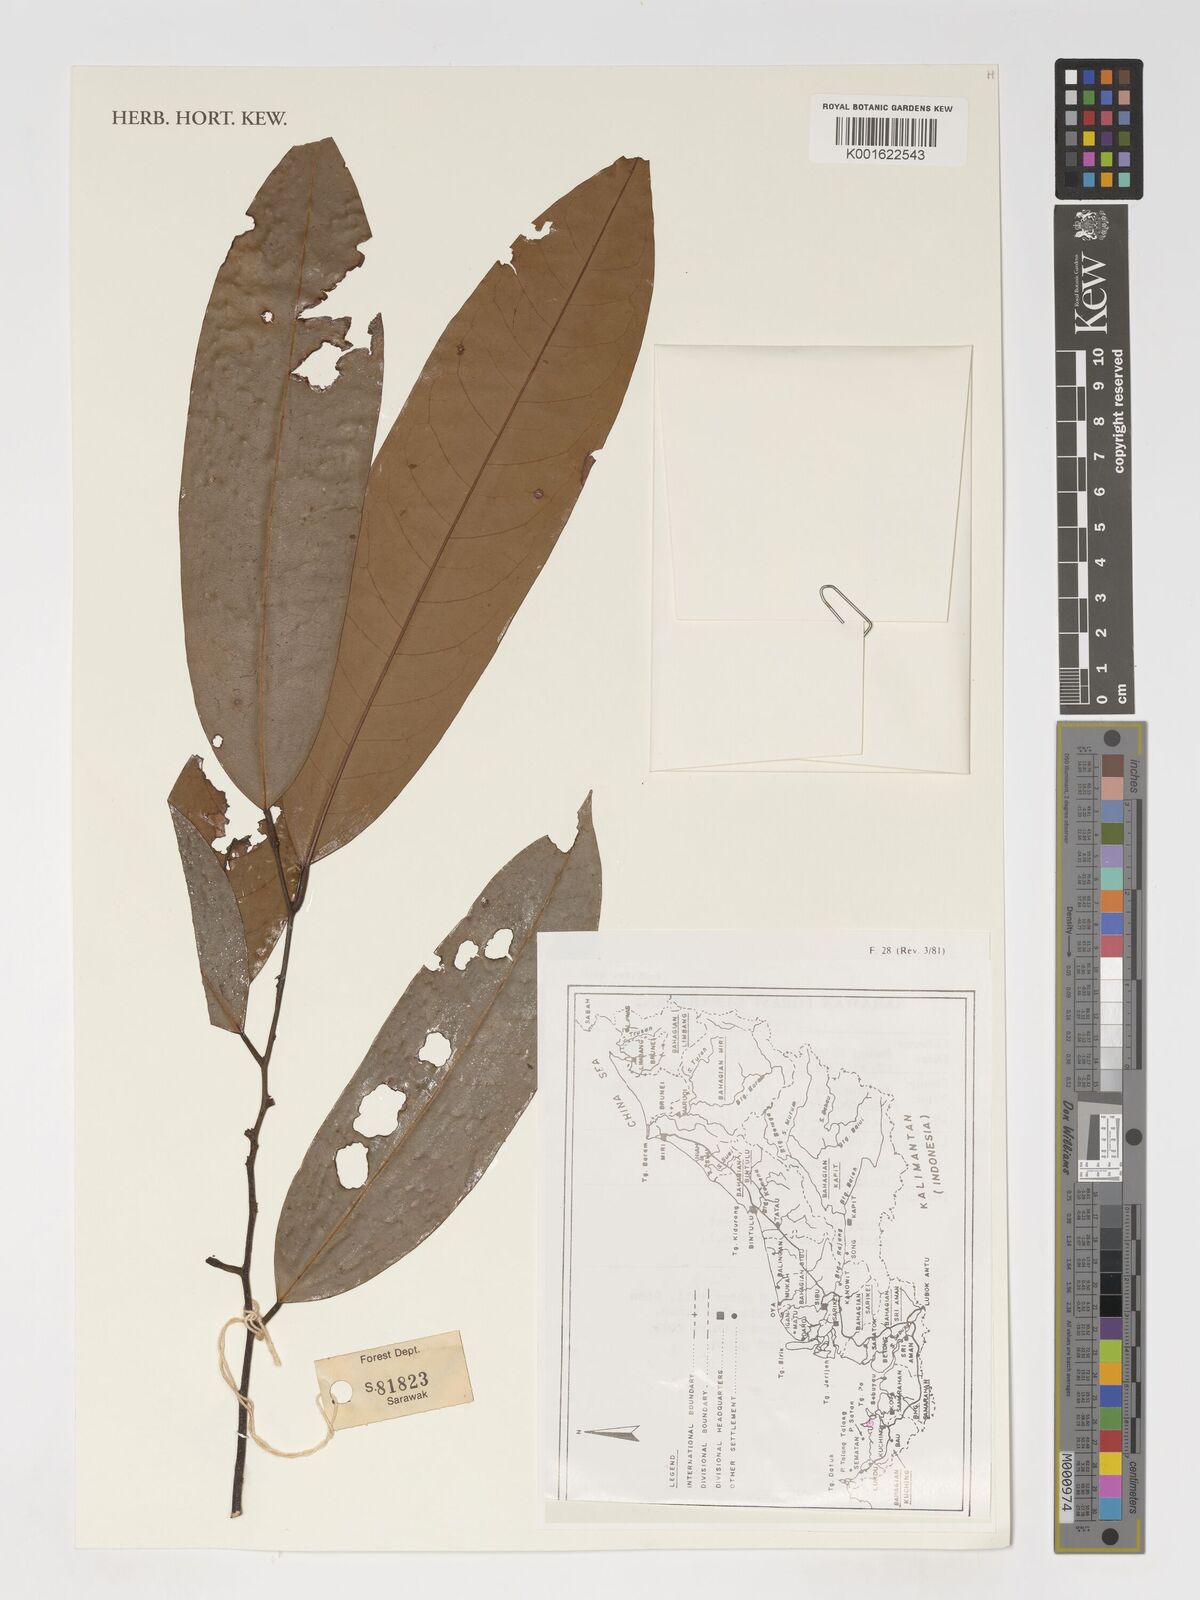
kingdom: Plantae
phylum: Tracheophyta
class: Magnoliopsida
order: Magnoliales
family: Annonaceae
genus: Fissistigma
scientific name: Fissistigma
